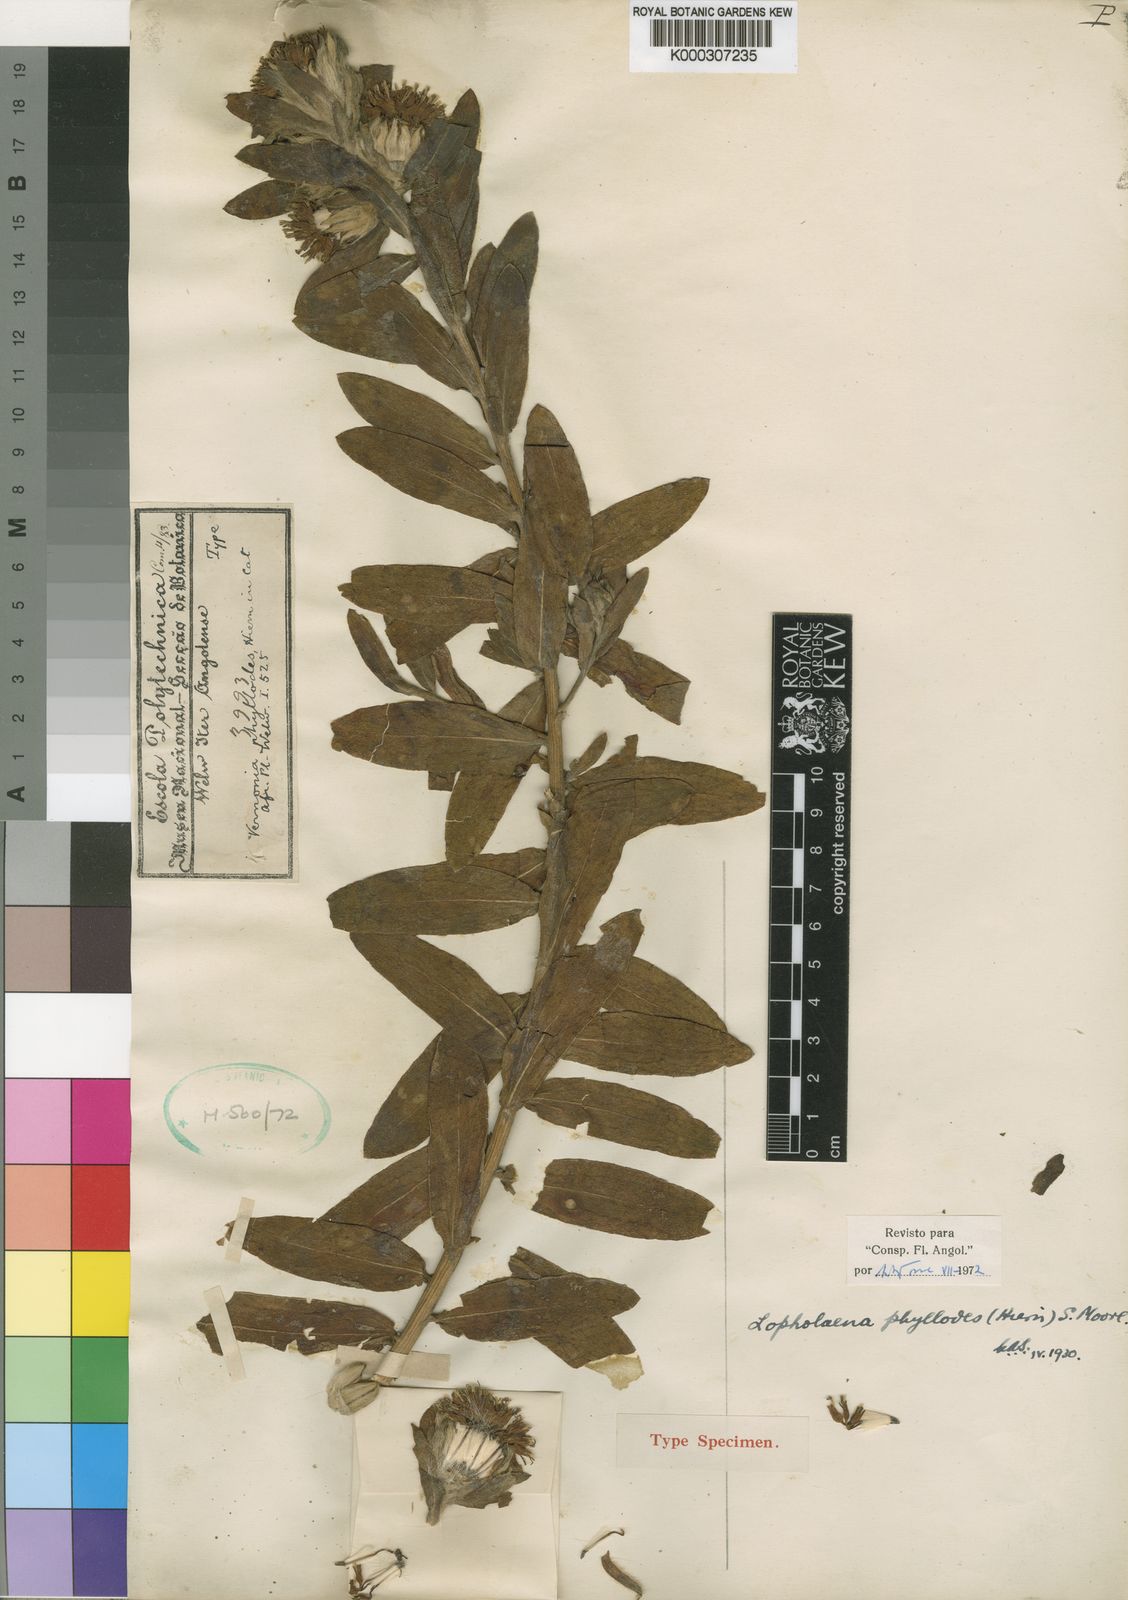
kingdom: Plantae
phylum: Tracheophyta
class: Magnoliopsida
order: Asterales
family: Asteraceae
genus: Lopholaena
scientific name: Lopholaena phyllodes
